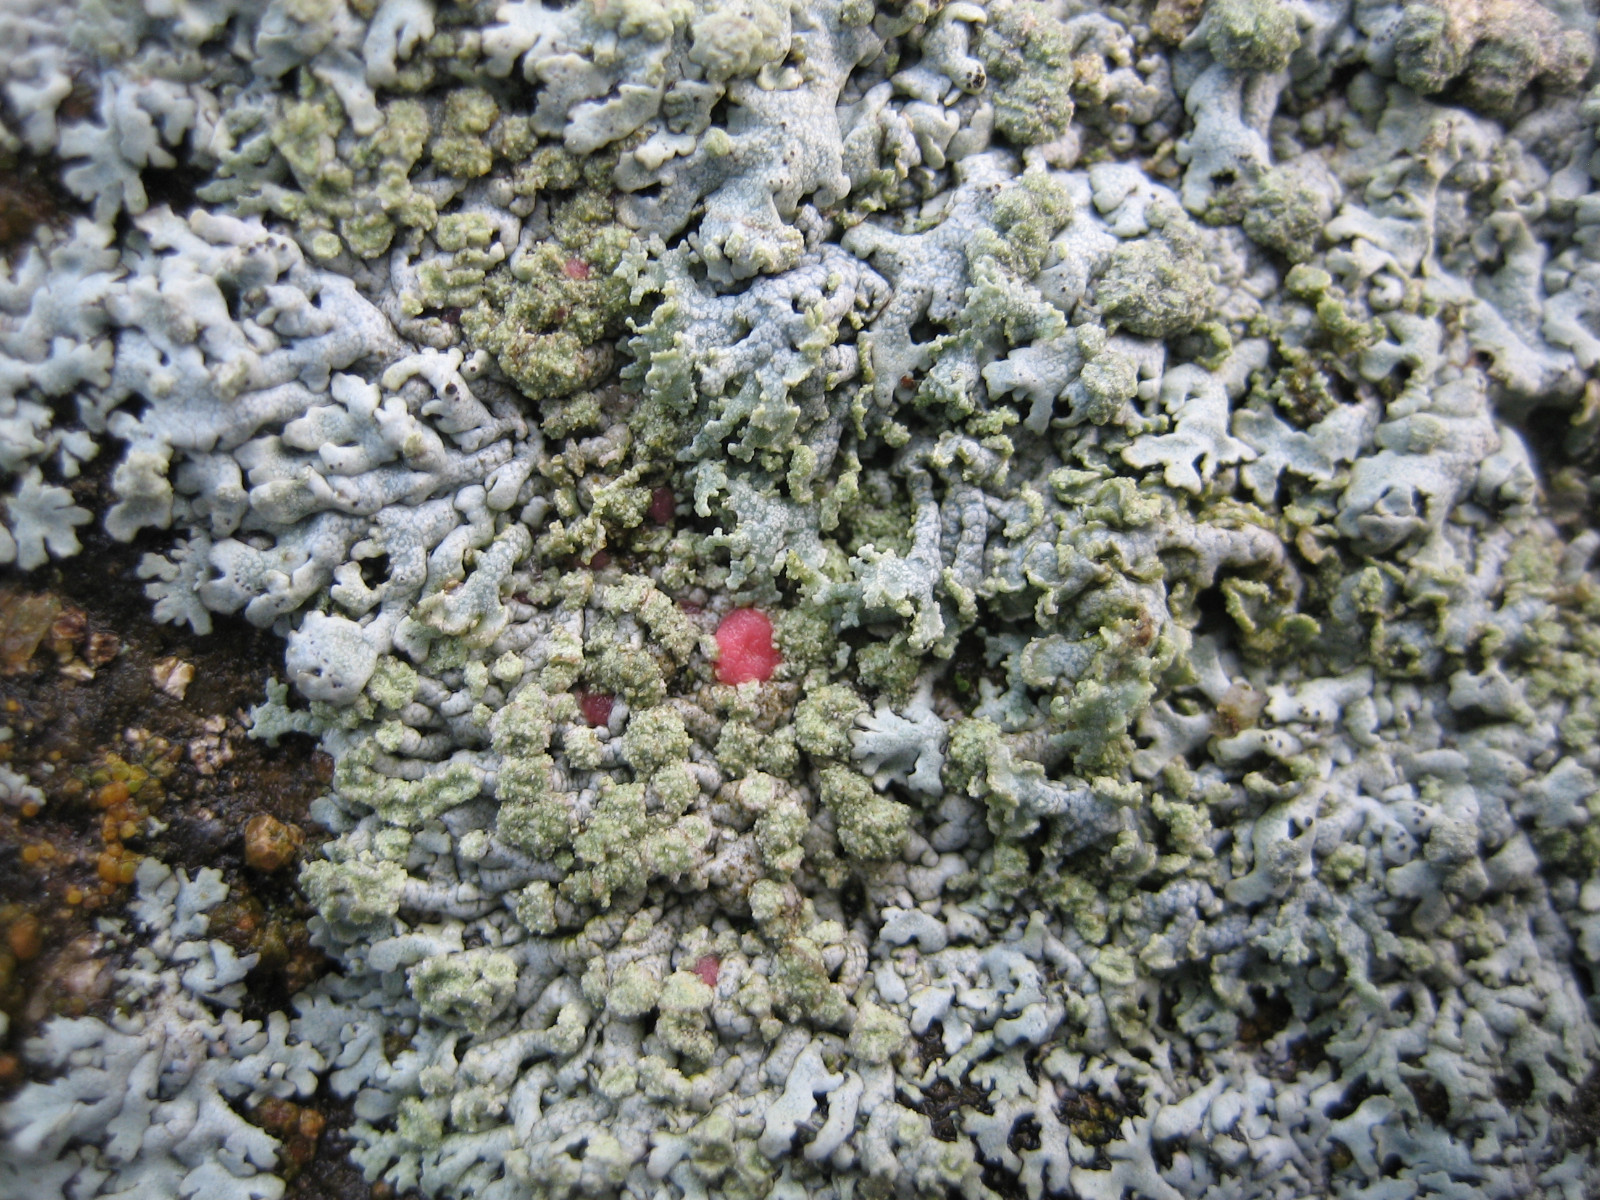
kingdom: Fungi
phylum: Ascomycota
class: Sordariomycetes
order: Hypocreales
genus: Illosporiopsis
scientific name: Illosporiopsis christiansenii
